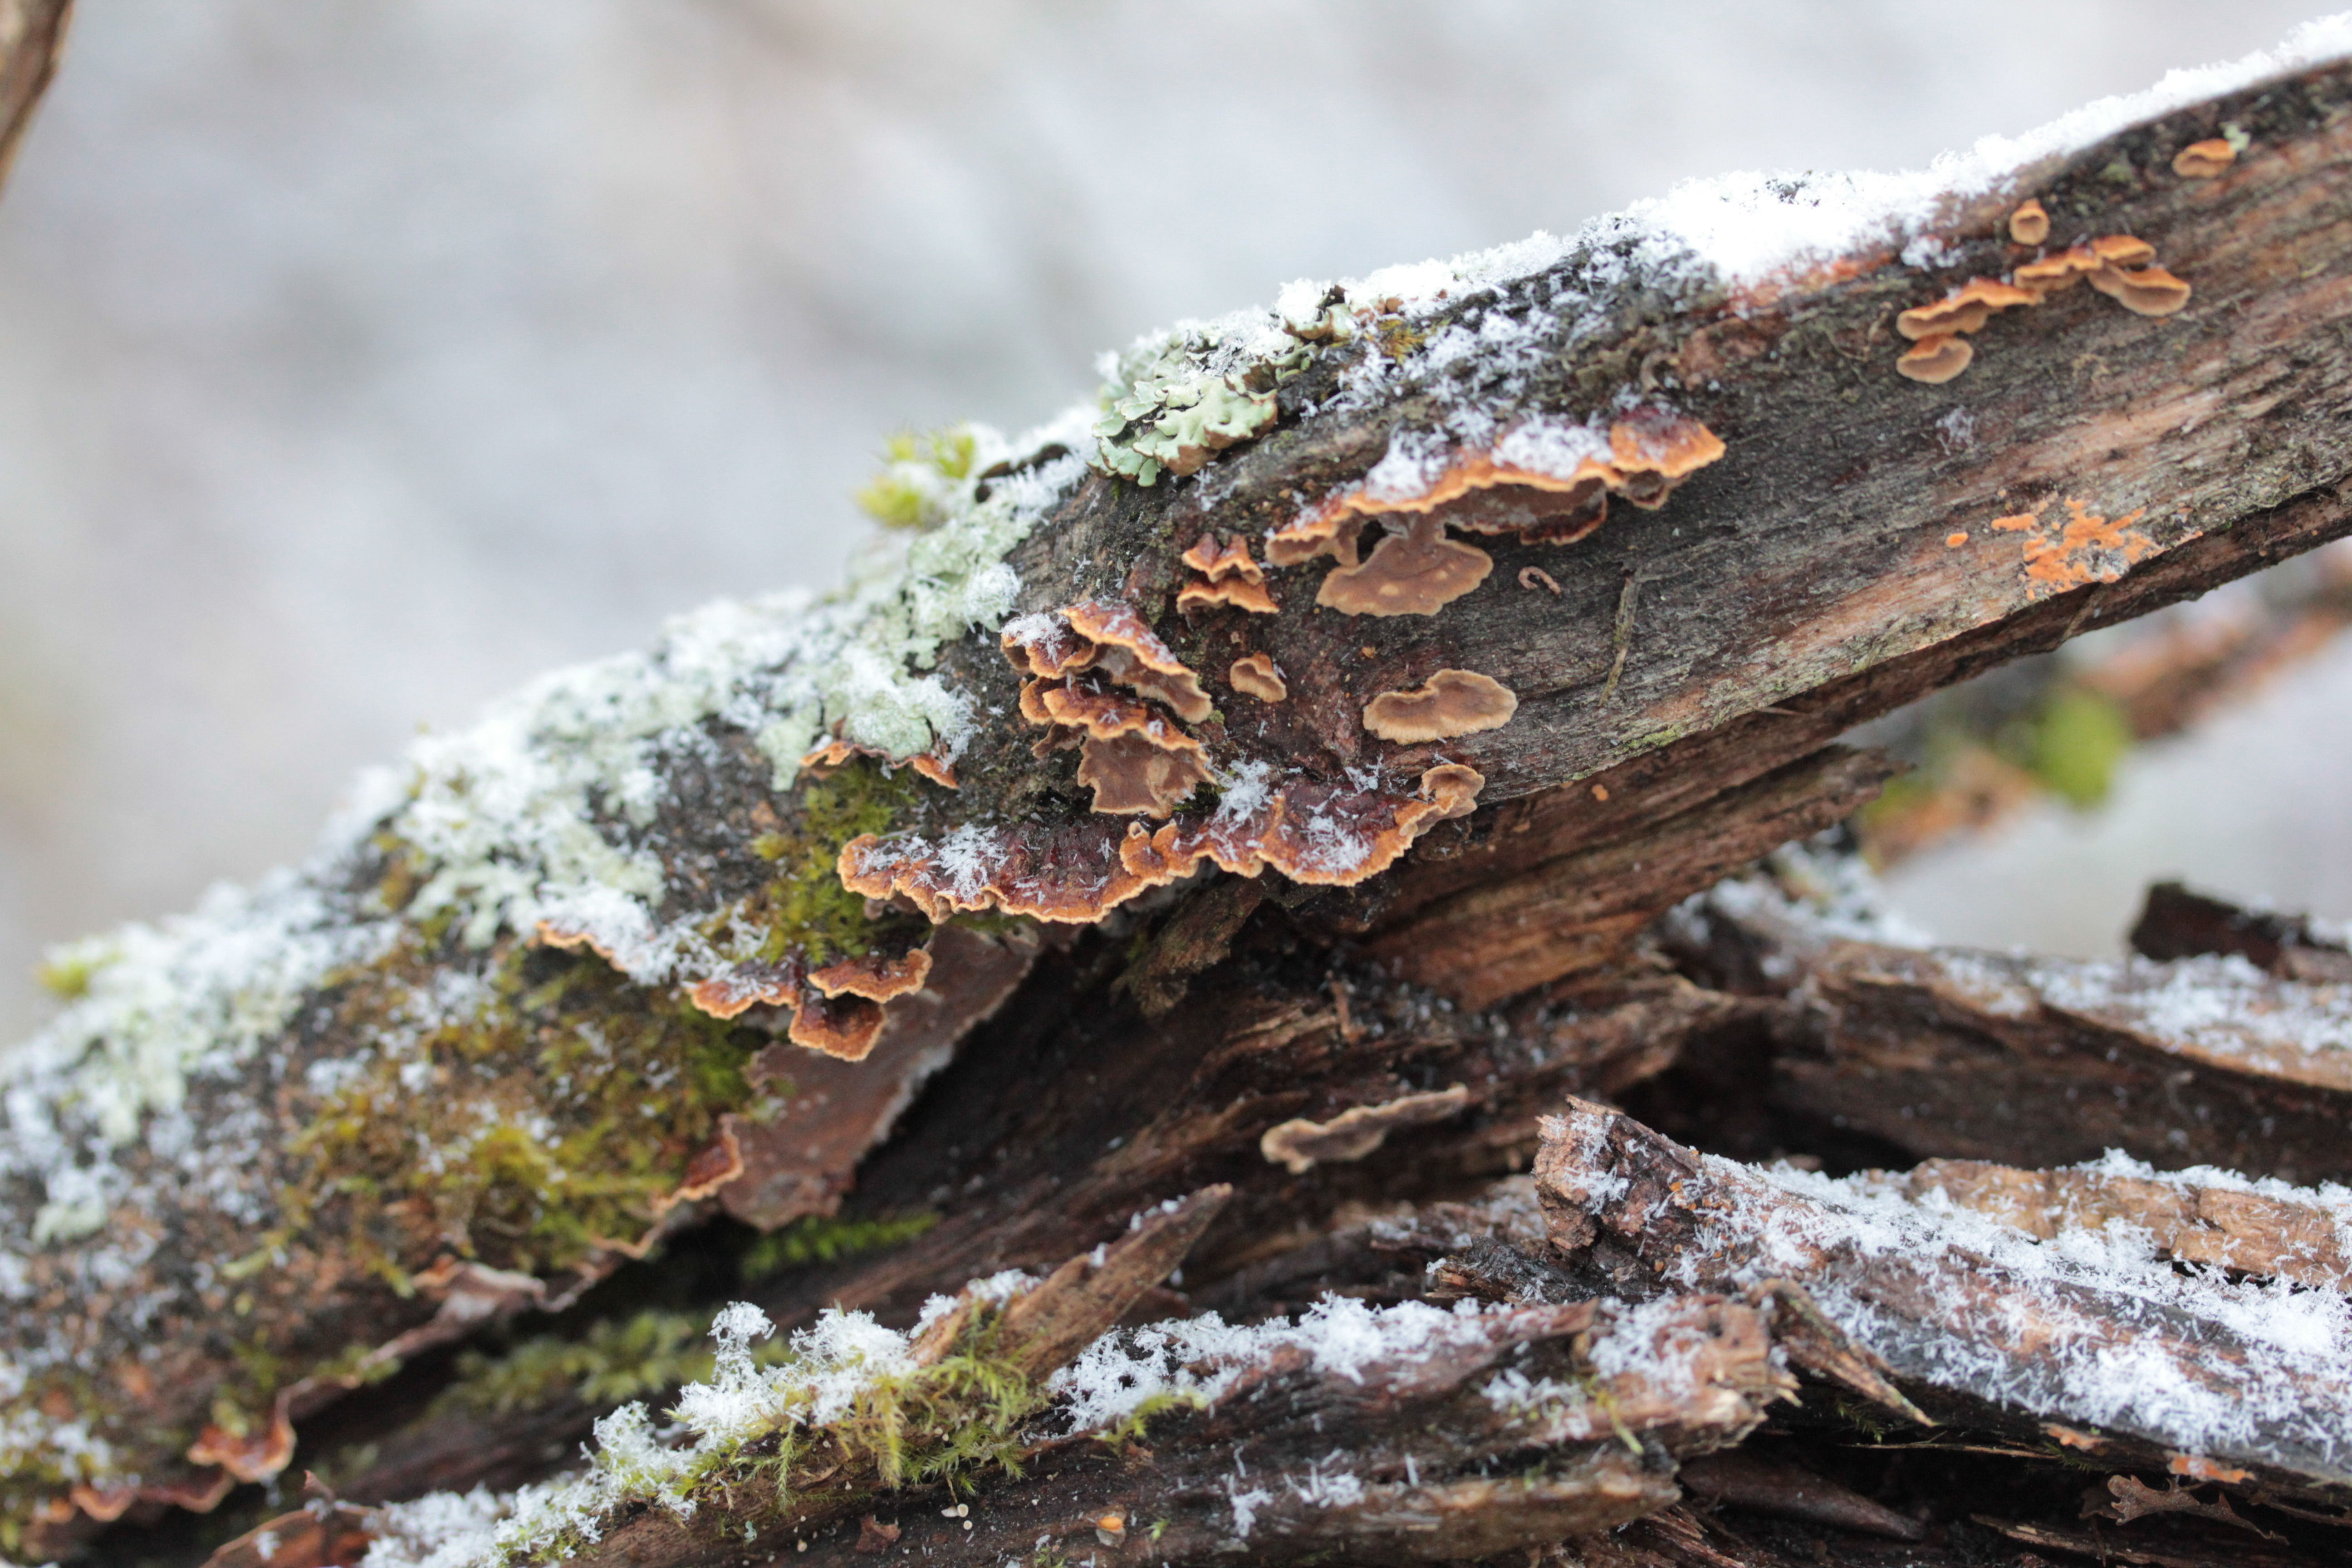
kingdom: Fungi
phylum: Basidiomycota
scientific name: Basidiomycota
